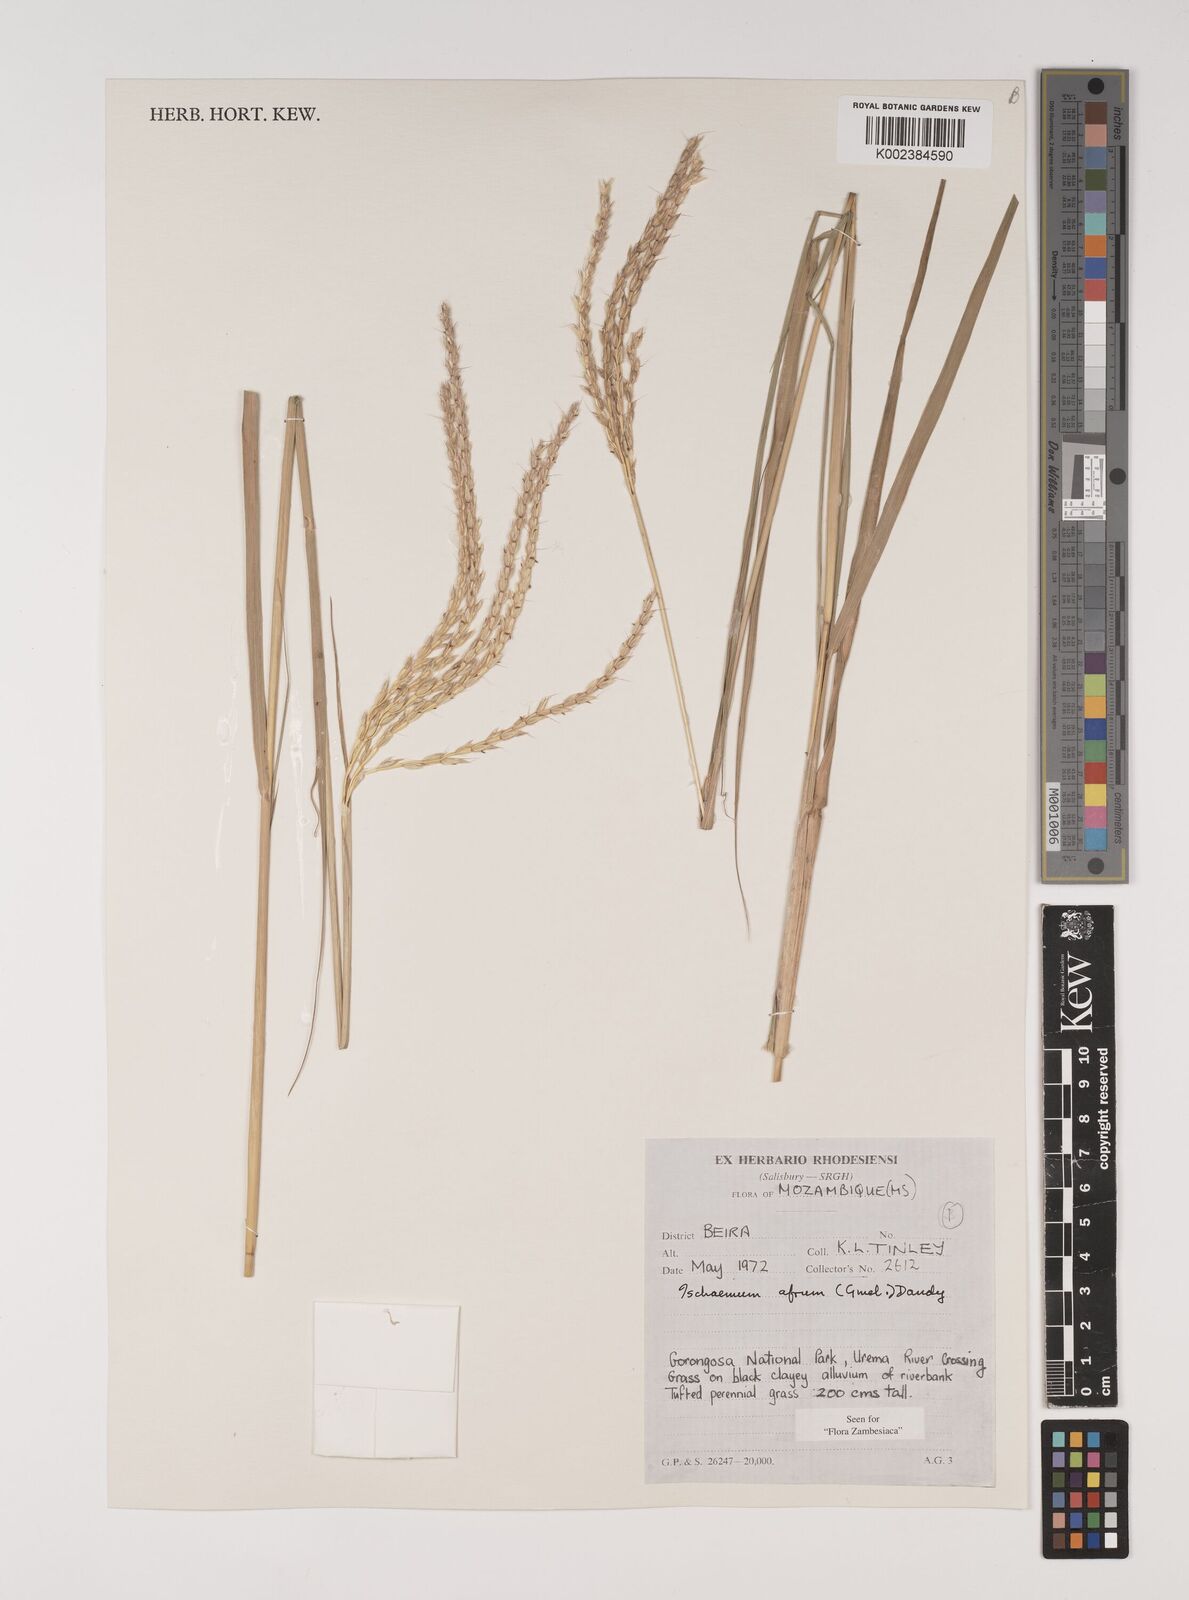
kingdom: Plantae
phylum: Tracheophyta
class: Liliopsida
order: Poales
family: Poaceae
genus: Ischaemum
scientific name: Ischaemum afrum
